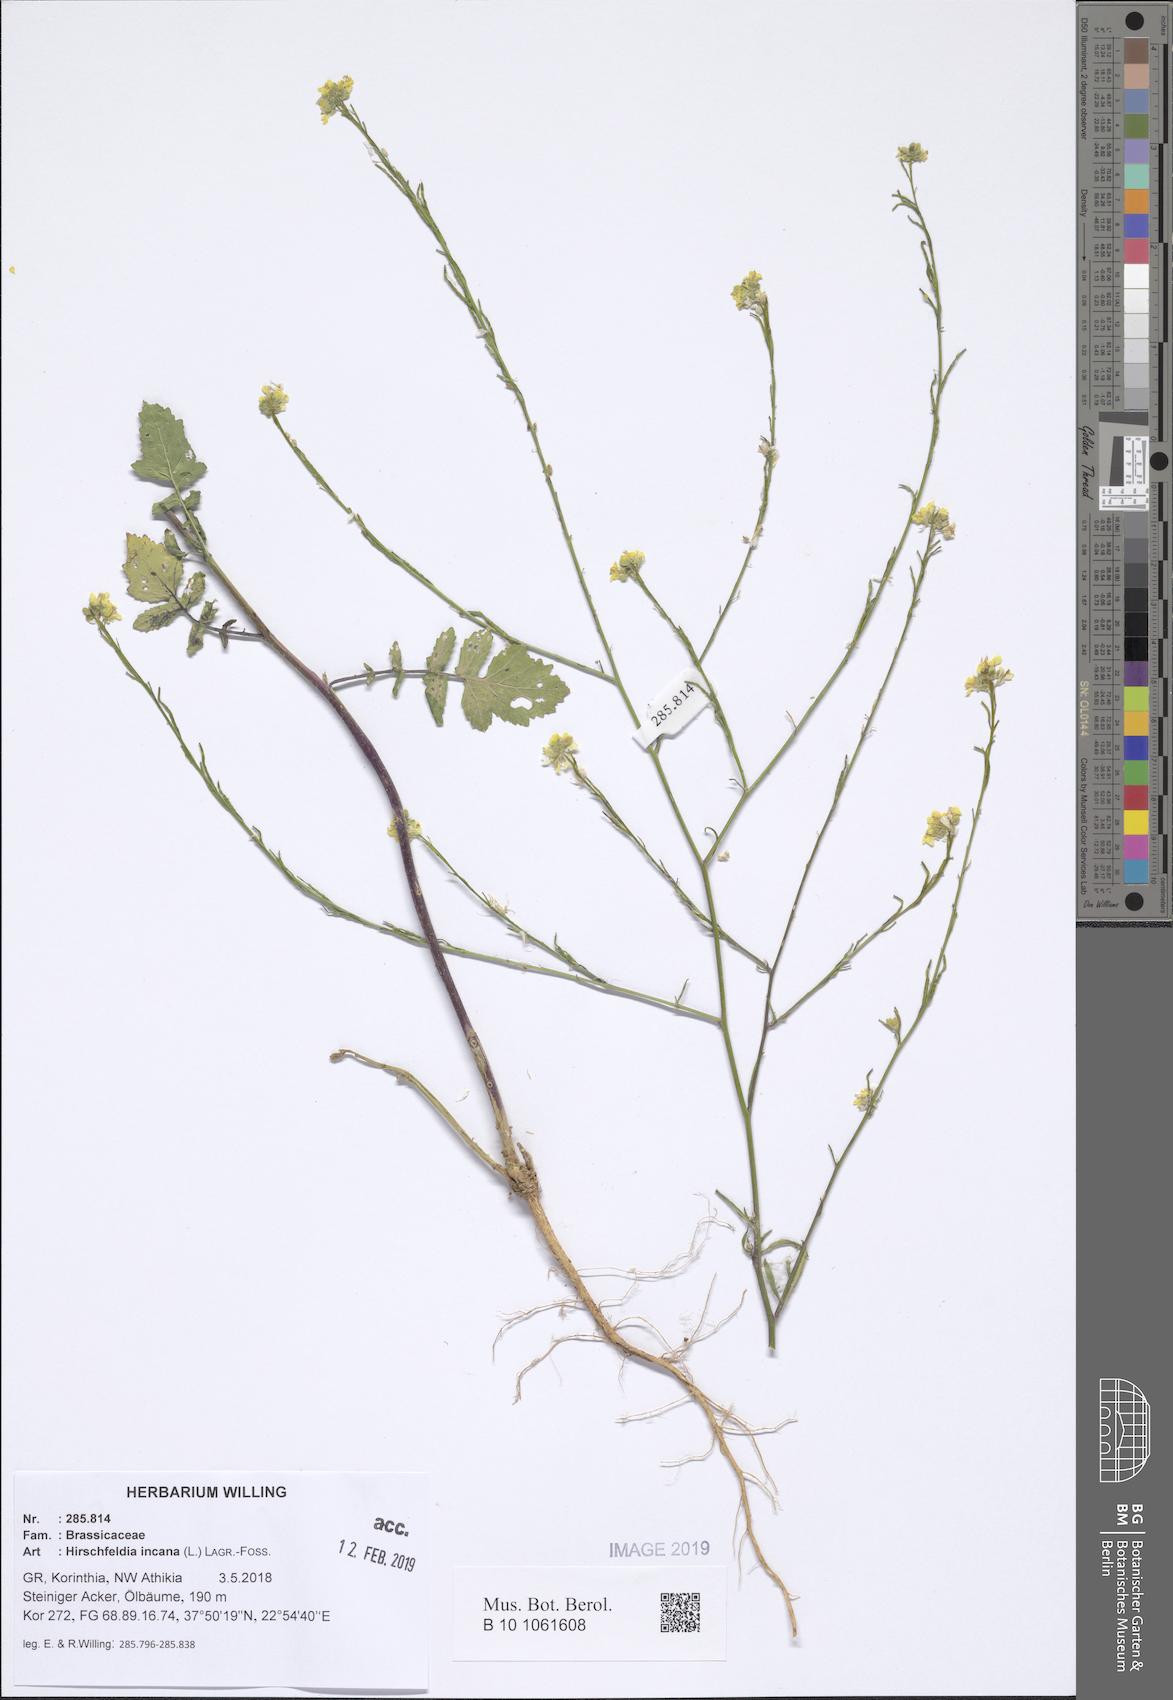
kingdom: Plantae
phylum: Tracheophyta
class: Magnoliopsida
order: Brassicales
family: Brassicaceae
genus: Hirschfeldia
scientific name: Hirschfeldia incana
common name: Hoary mustard
